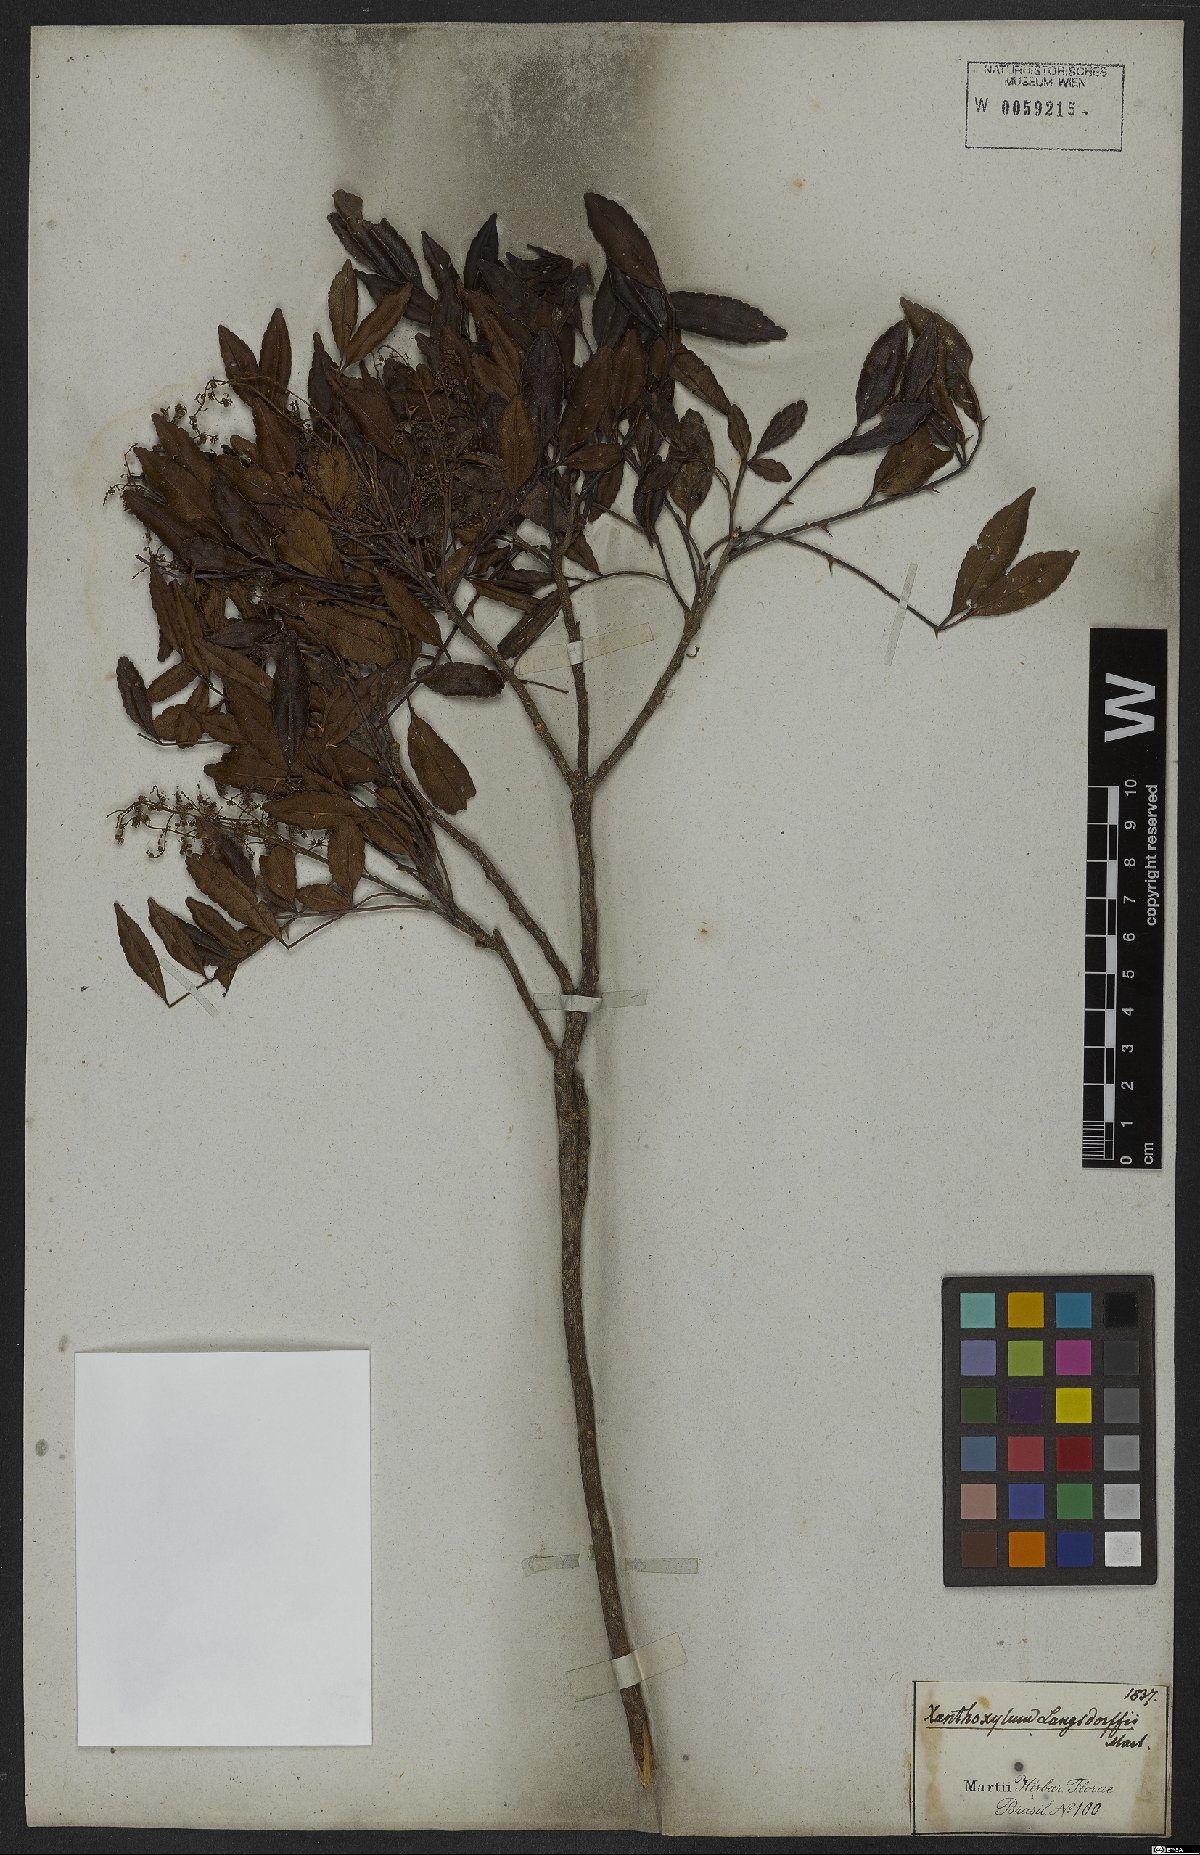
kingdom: Plantae
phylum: Tracheophyta
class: Magnoliopsida
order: Sapindales
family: Rutaceae
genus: Zanthoxylum
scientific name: Zanthoxylum rhoifolium
